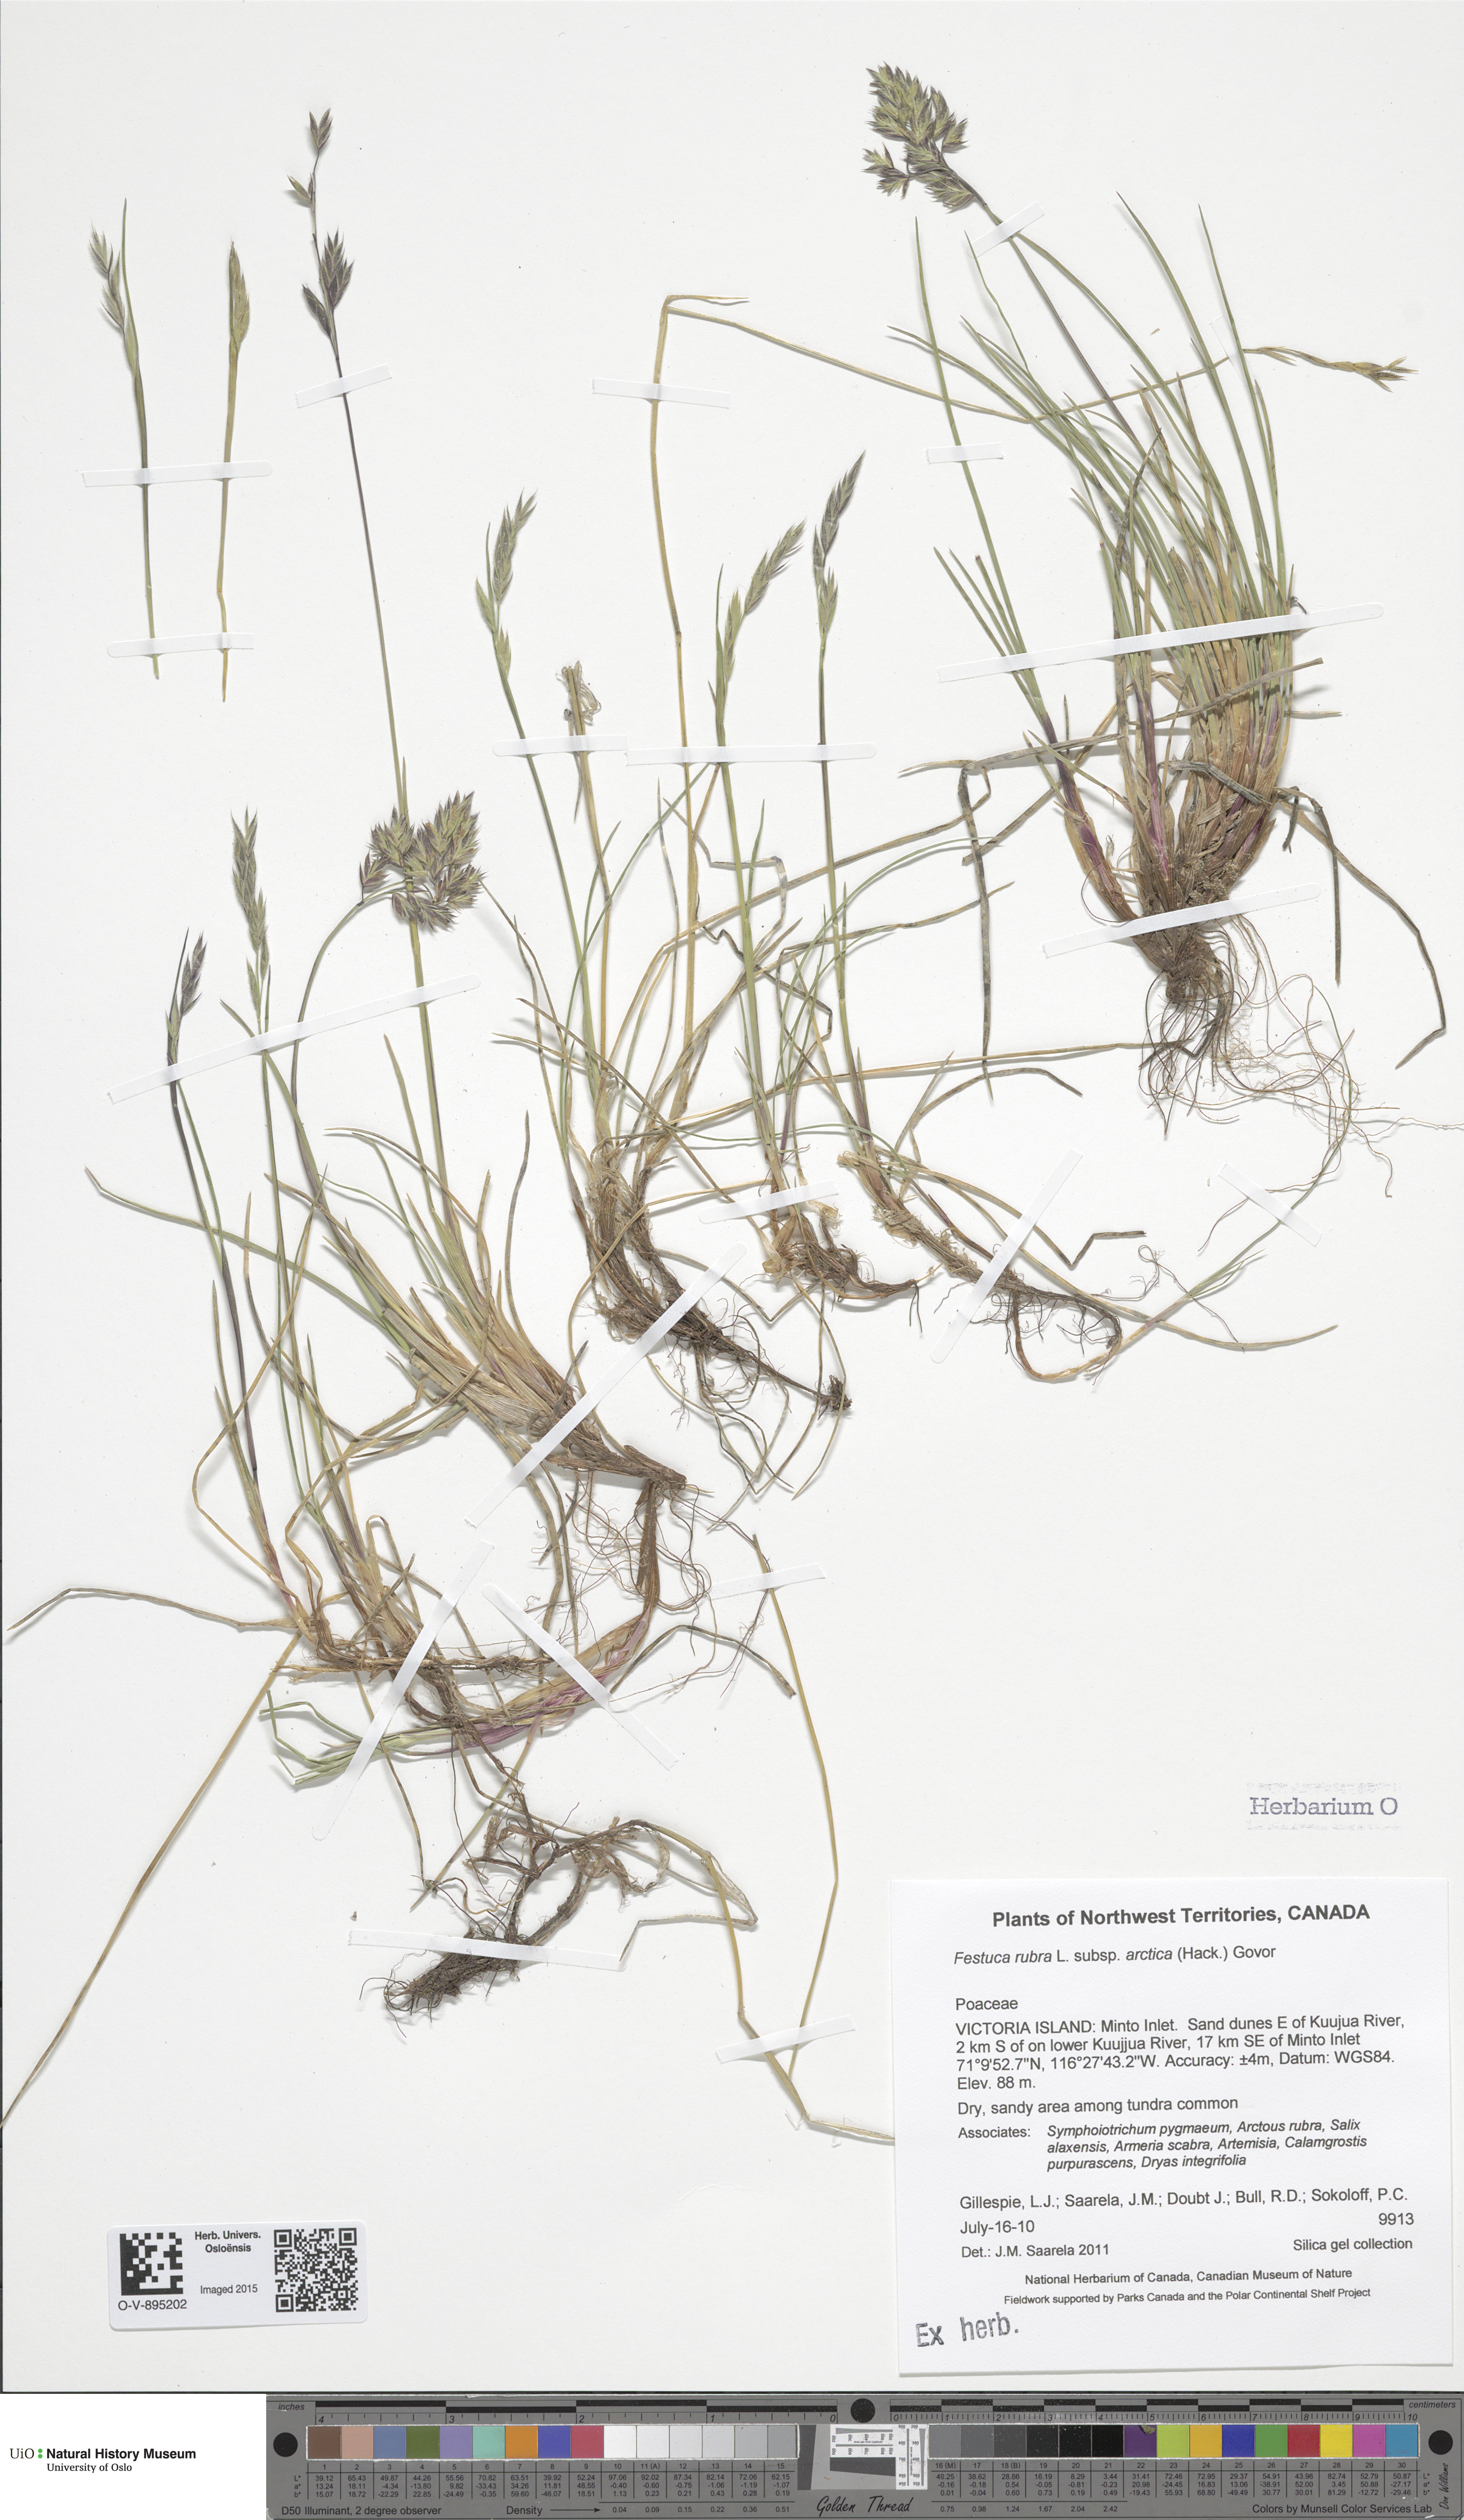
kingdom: Plantae
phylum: Tracheophyta
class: Liliopsida
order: Poales
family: Poaceae
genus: Festuca
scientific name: Festuca richardsonii
